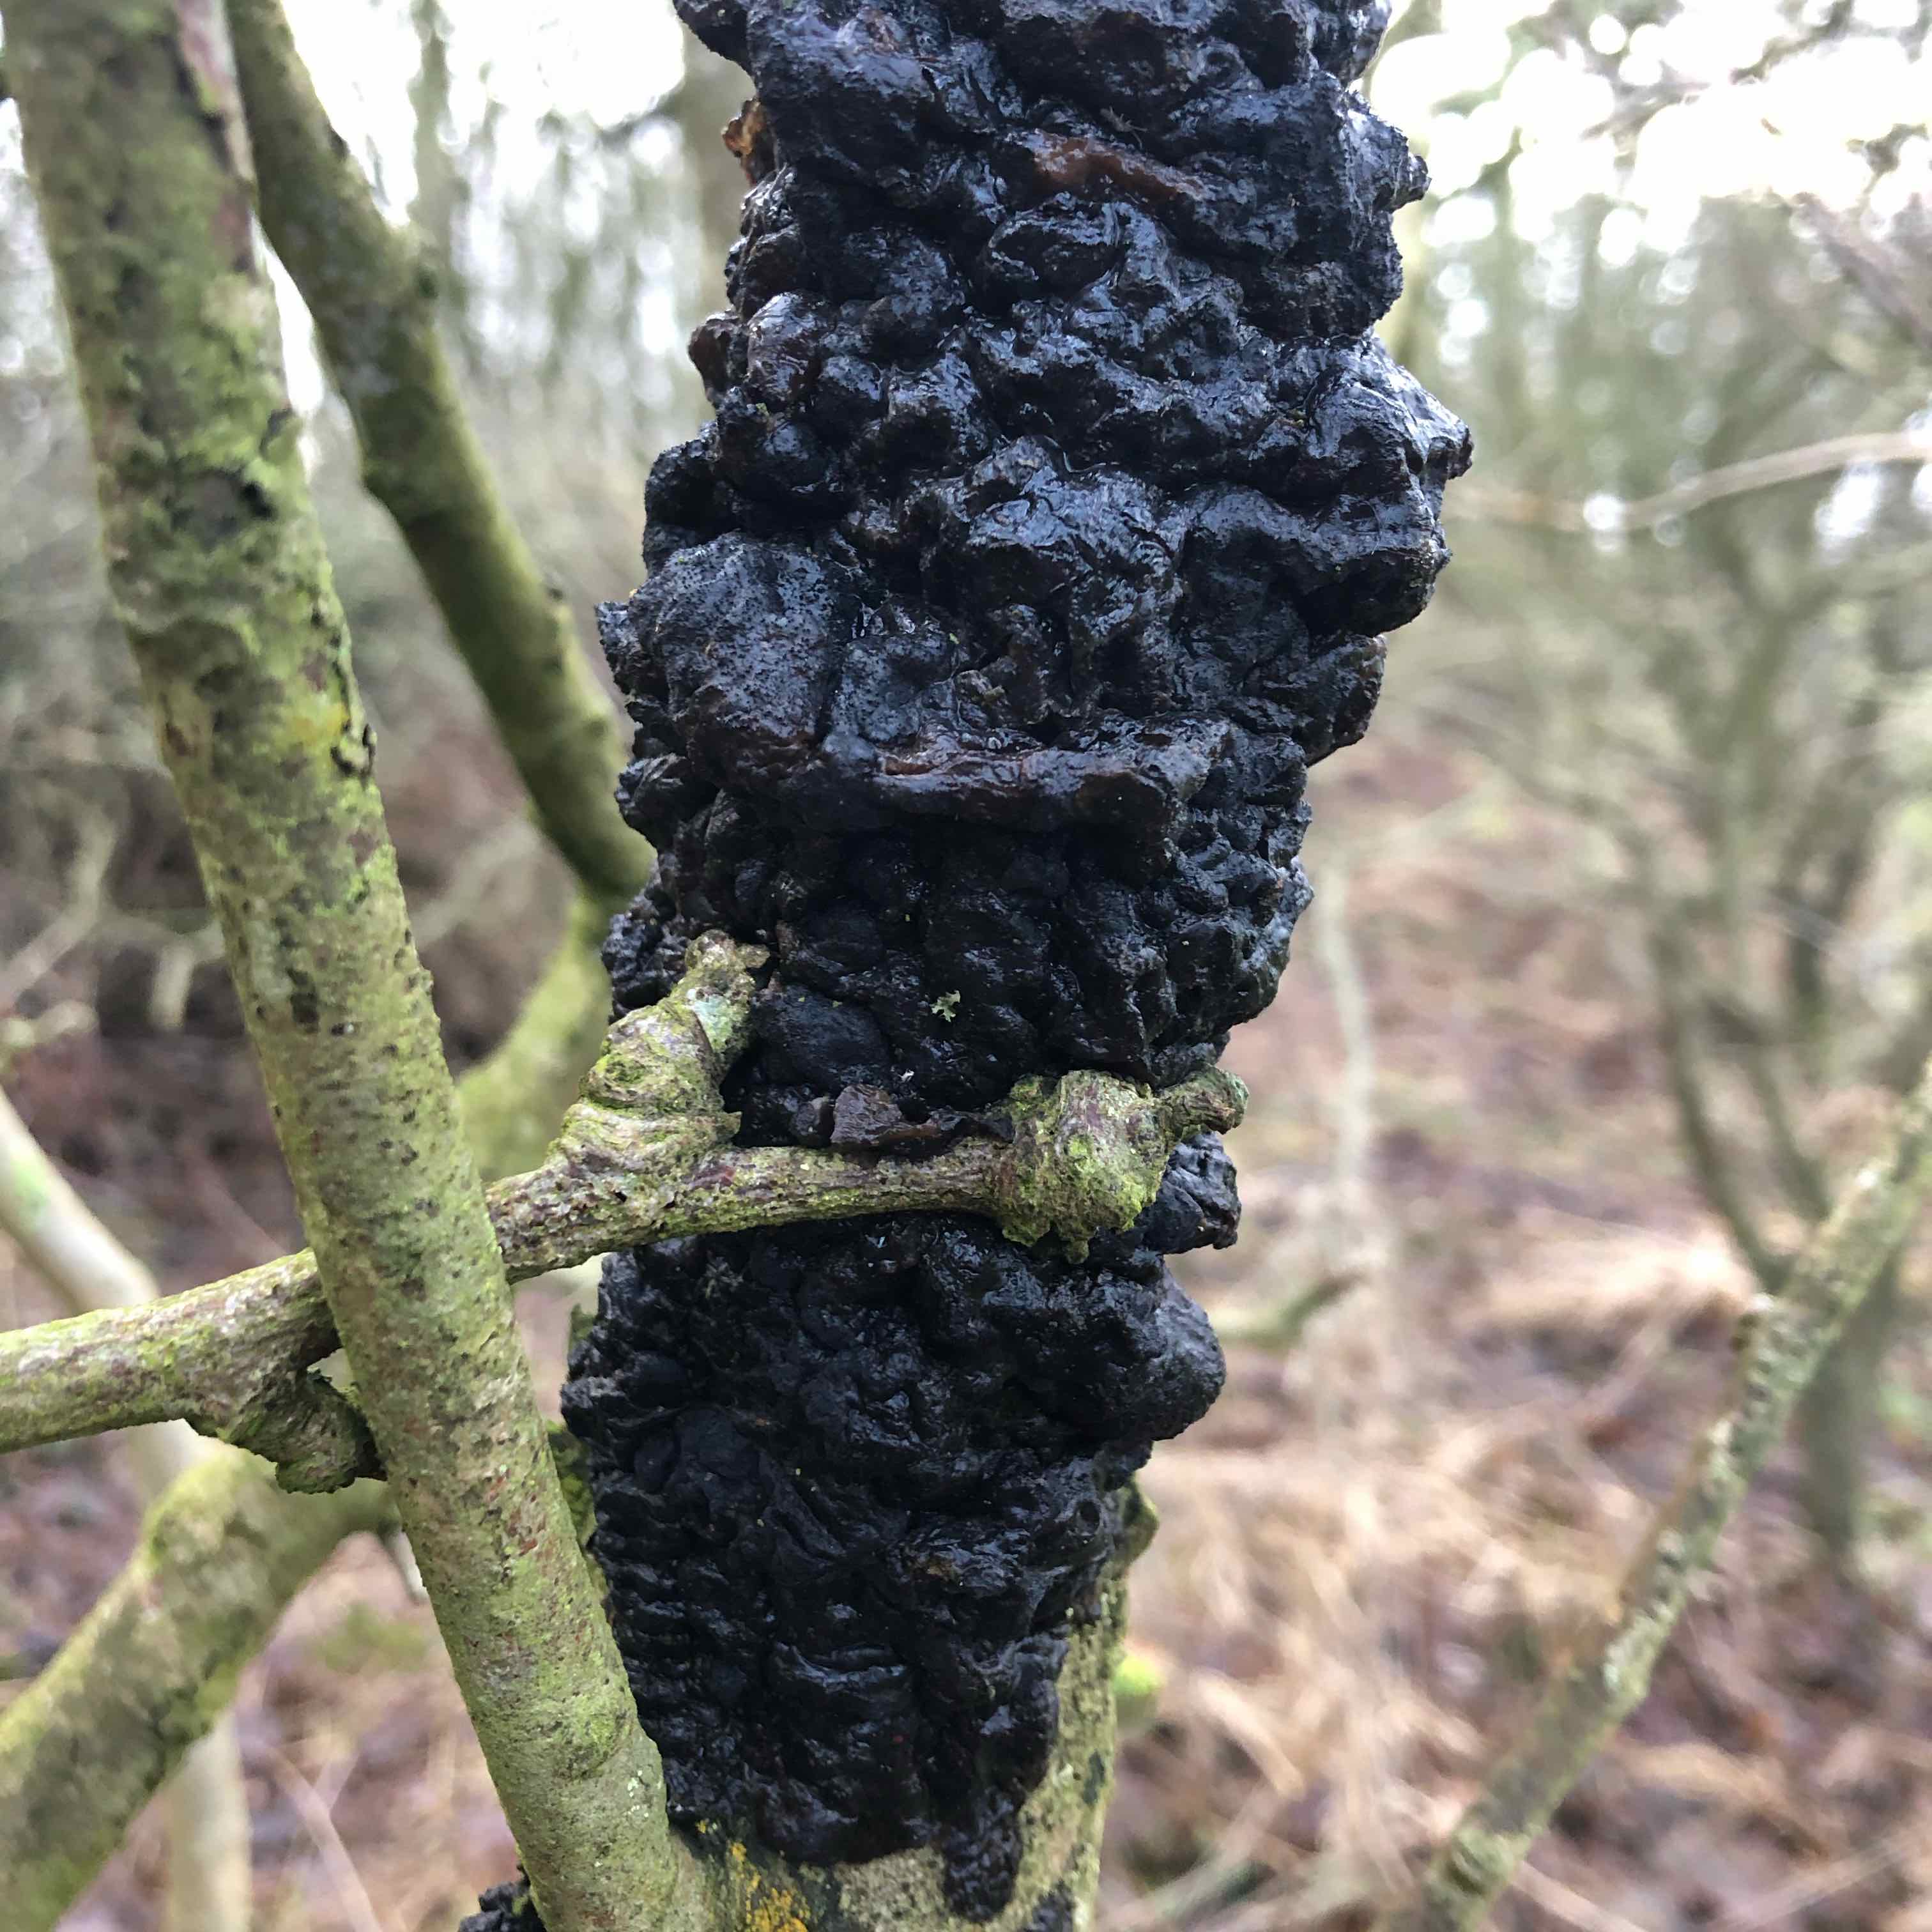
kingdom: Fungi
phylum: Basidiomycota
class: Agaricomycetes
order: Auriculariales
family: Auriculariaceae
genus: Exidia
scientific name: Exidia nigricans
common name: almindelig bævretop
